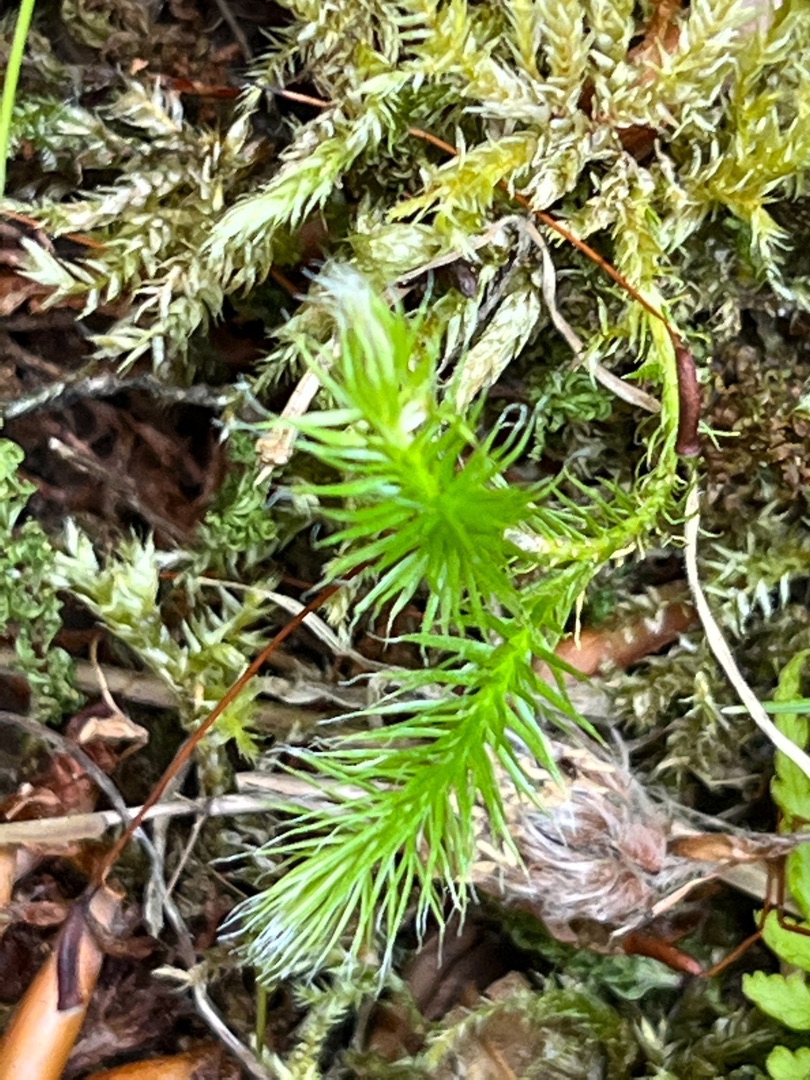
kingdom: Plantae
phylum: Tracheophyta
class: Lycopodiopsida
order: Lycopodiales
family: Lycopodiaceae
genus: Lycopodium
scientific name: Lycopodium clavatum
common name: Almindelig ulvefod
